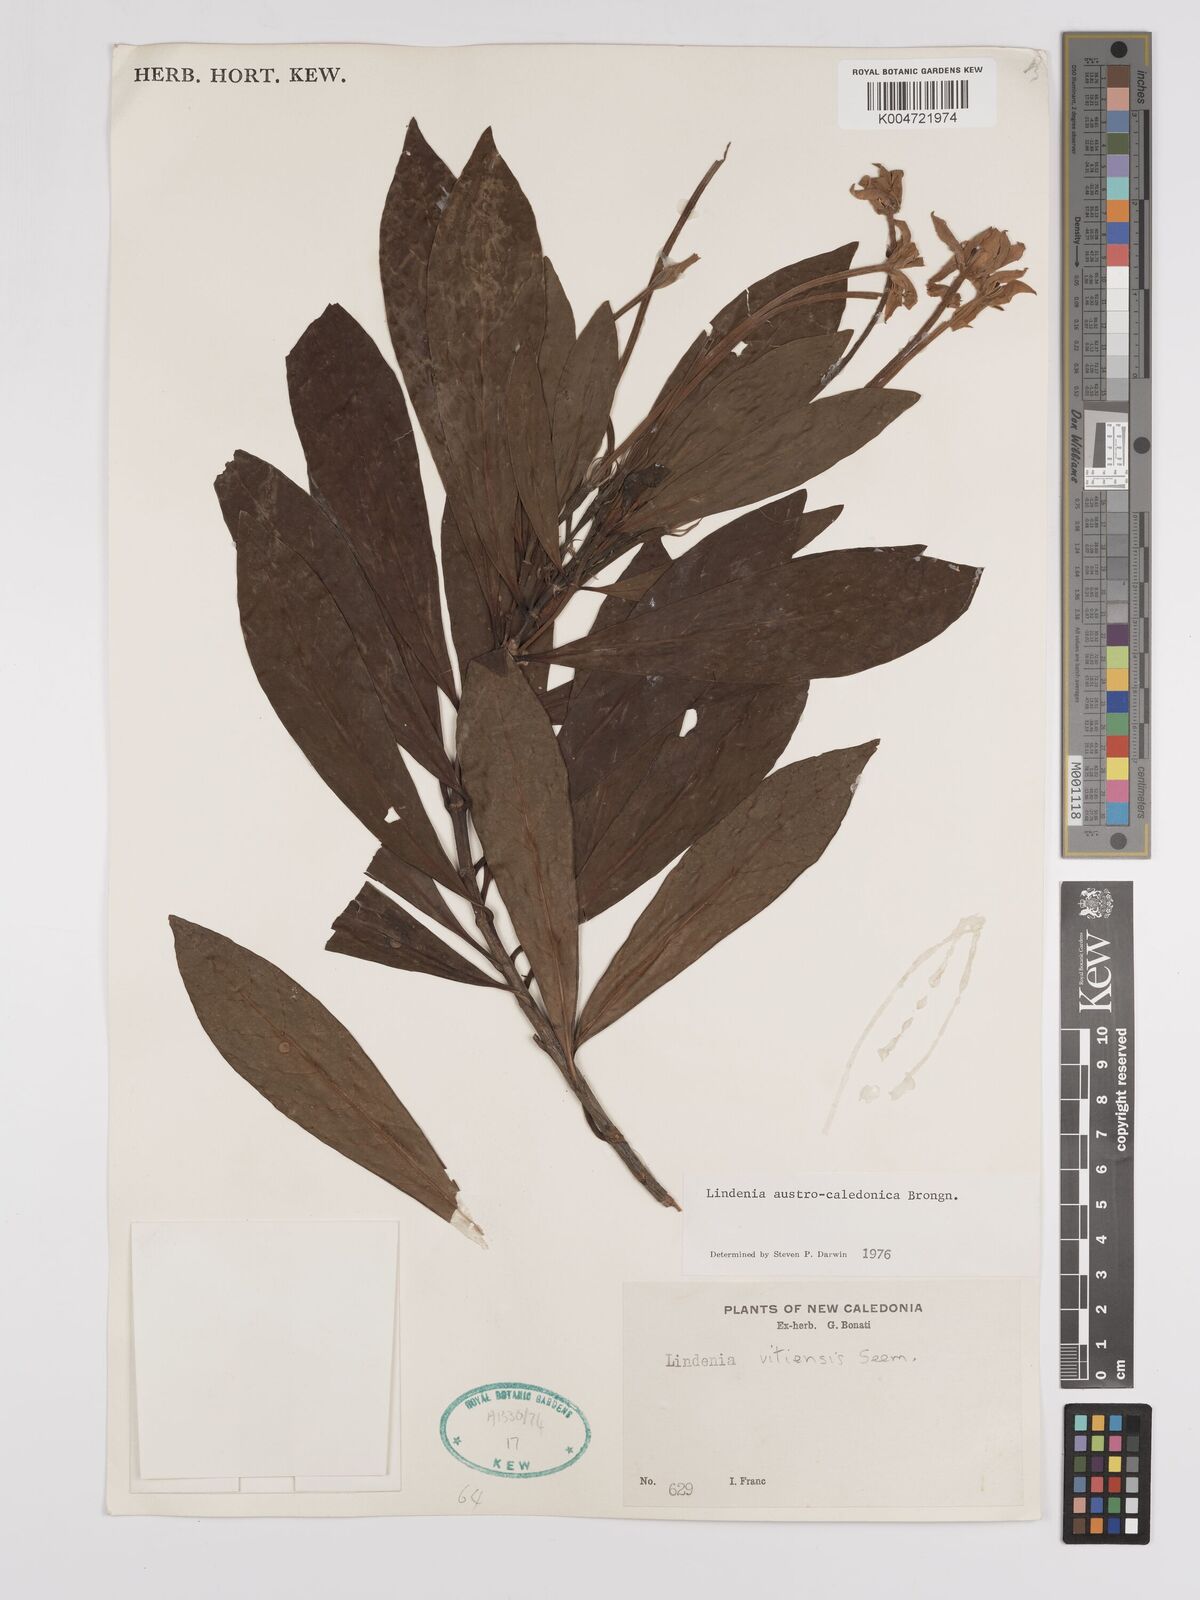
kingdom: Plantae
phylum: Tracheophyta
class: Magnoliopsida
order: Gentianales
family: Rubiaceae
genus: Augusta
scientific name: Augusta austrocaledonica
